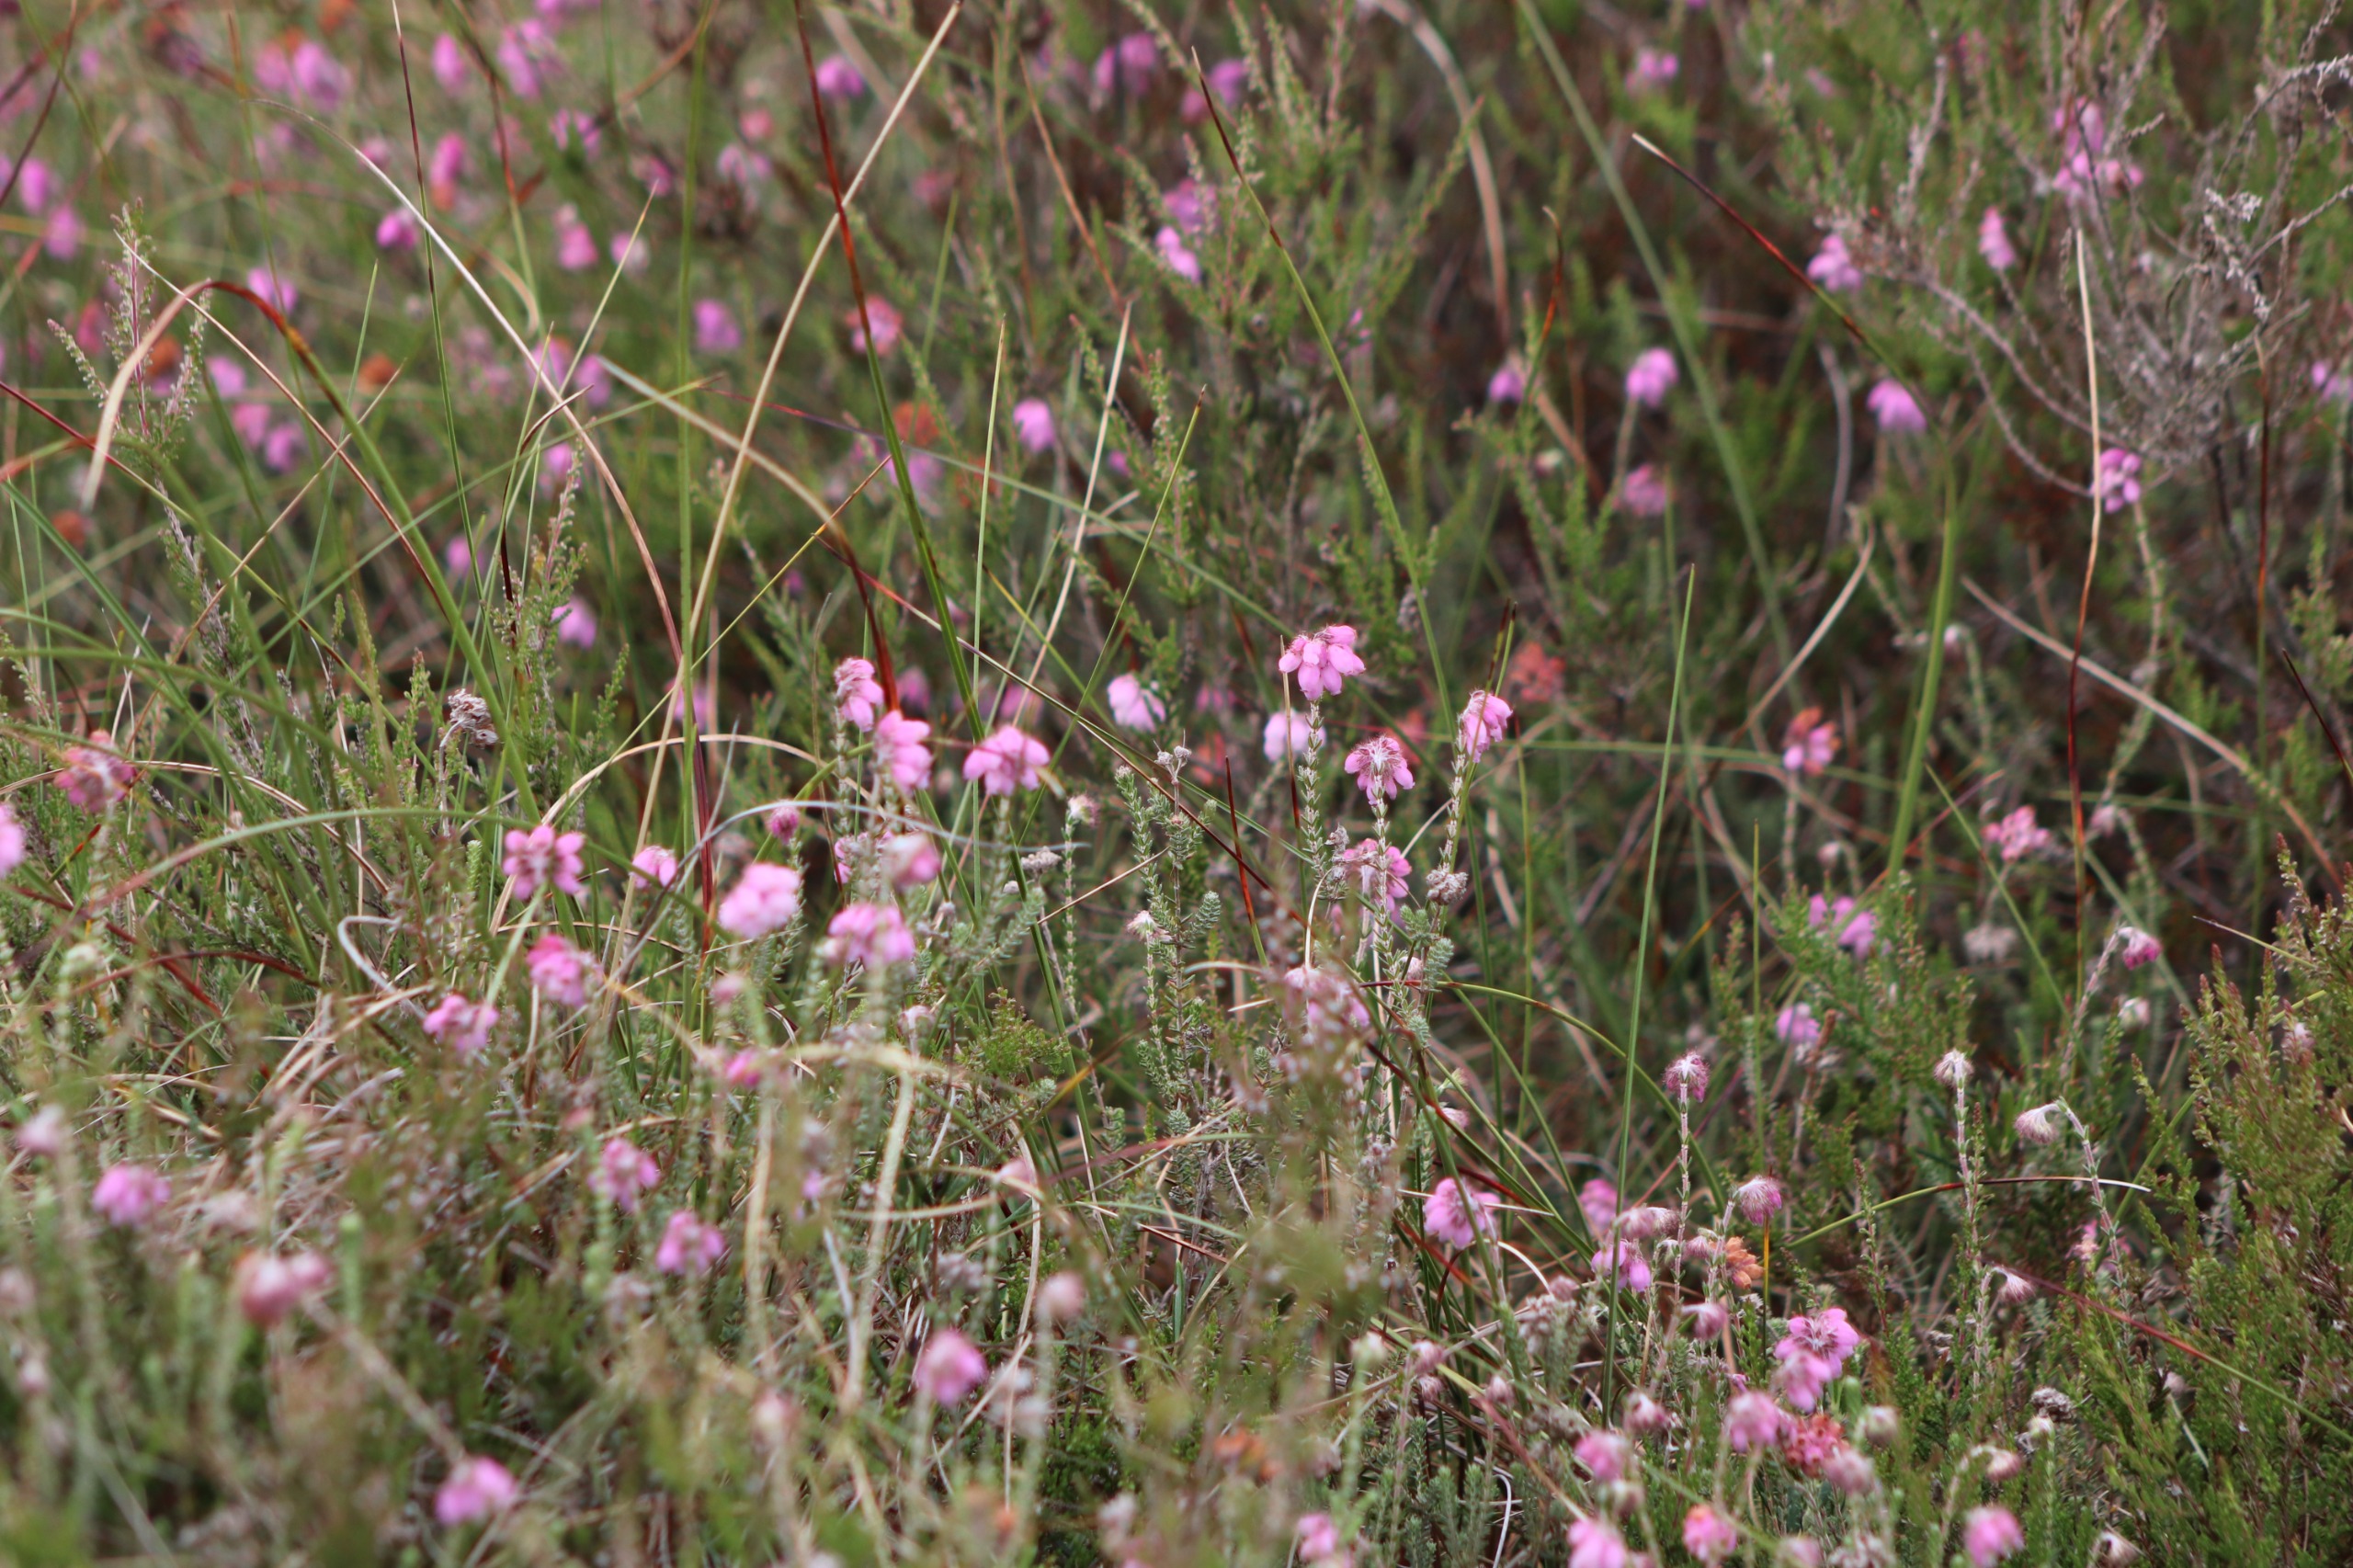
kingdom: Plantae
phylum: Tracheophyta
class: Magnoliopsida
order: Ericales
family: Ericaceae
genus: Erica
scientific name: Erica tetralix
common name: Klokkelyng
